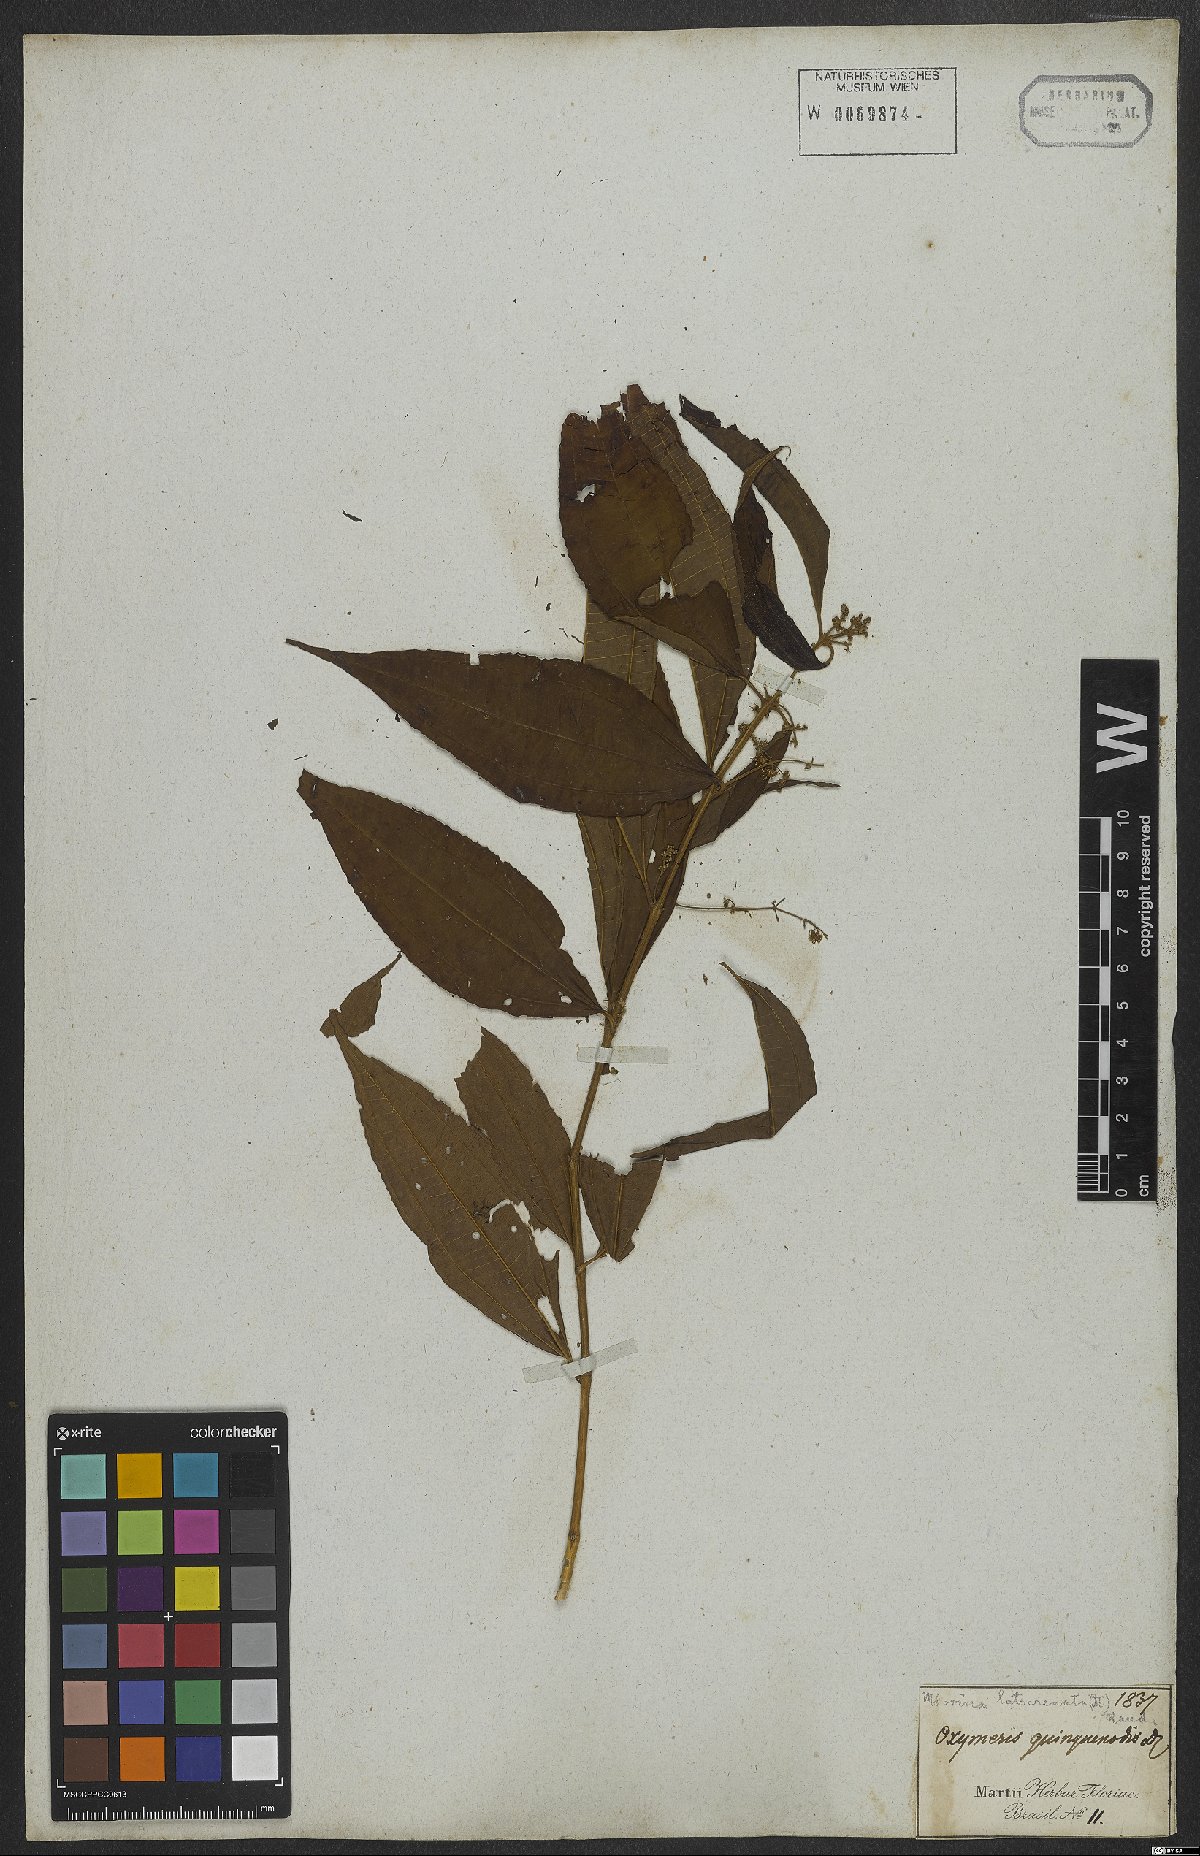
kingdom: Plantae
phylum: Tracheophyta
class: Magnoliopsida
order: Myrtales
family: Melastomataceae
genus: Miconia
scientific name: Miconia latecrenata
